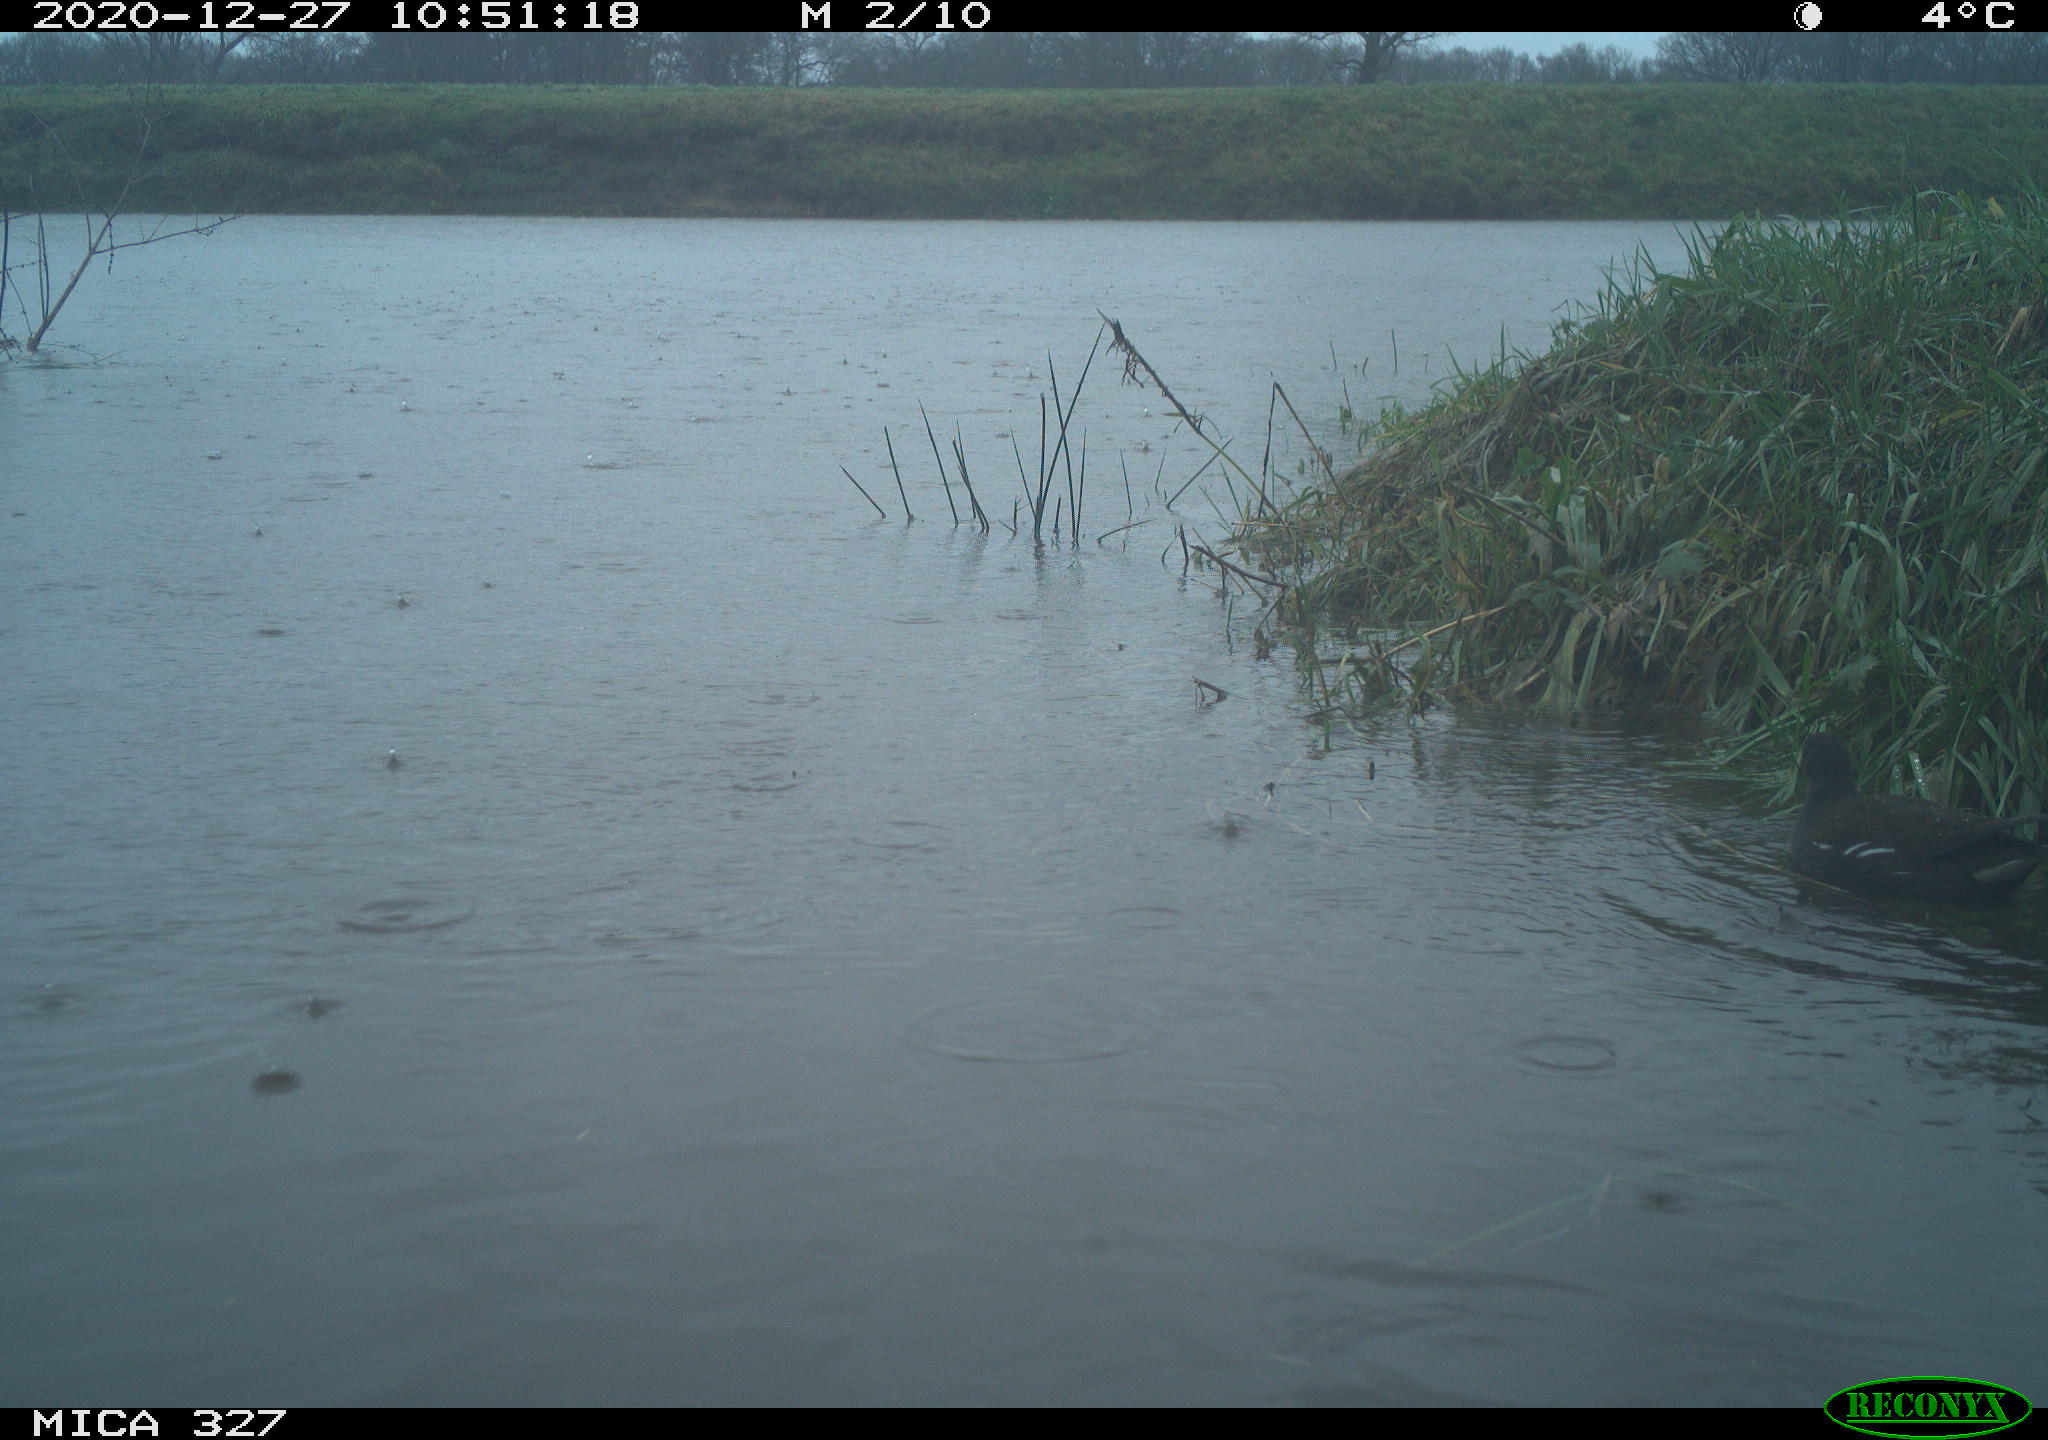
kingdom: Animalia
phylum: Chordata
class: Aves
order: Gruiformes
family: Rallidae
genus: Gallinula
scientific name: Gallinula chloropus
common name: Common moorhen
